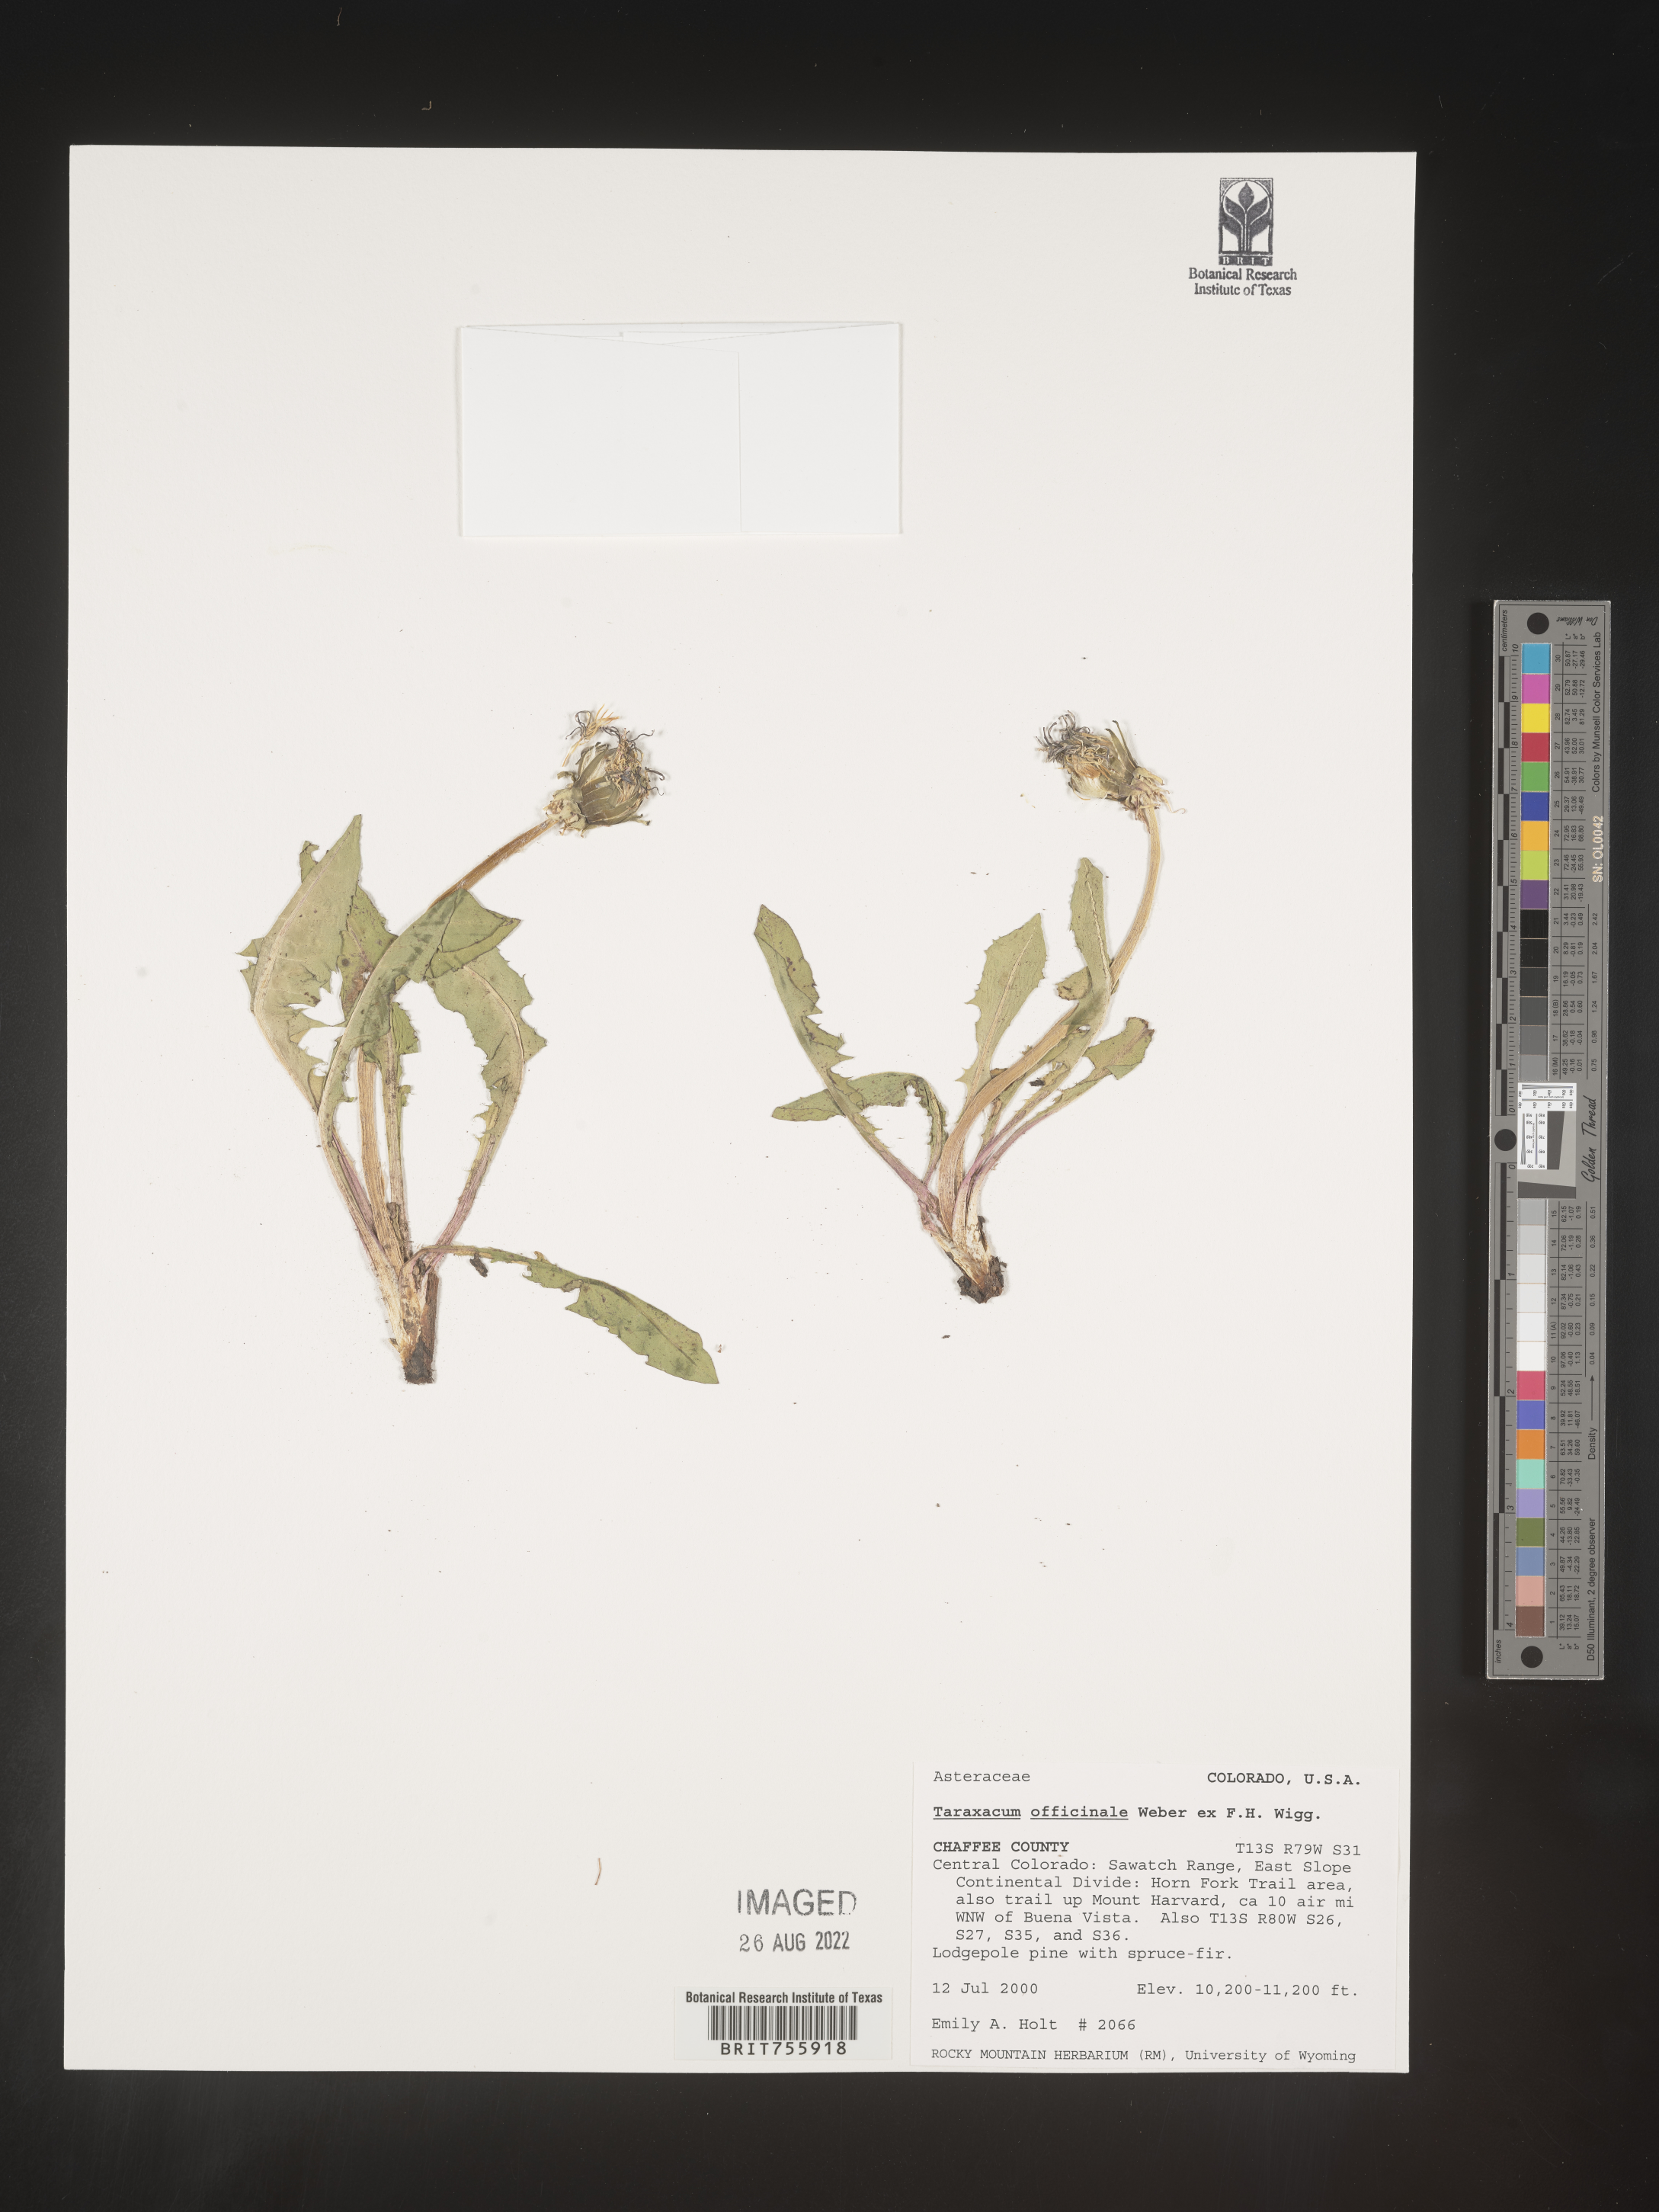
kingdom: Plantae
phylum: Tracheophyta
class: Magnoliopsida
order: Asterales
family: Asteraceae
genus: Taraxacum
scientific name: Taraxacum officinale
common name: Common dandelion
